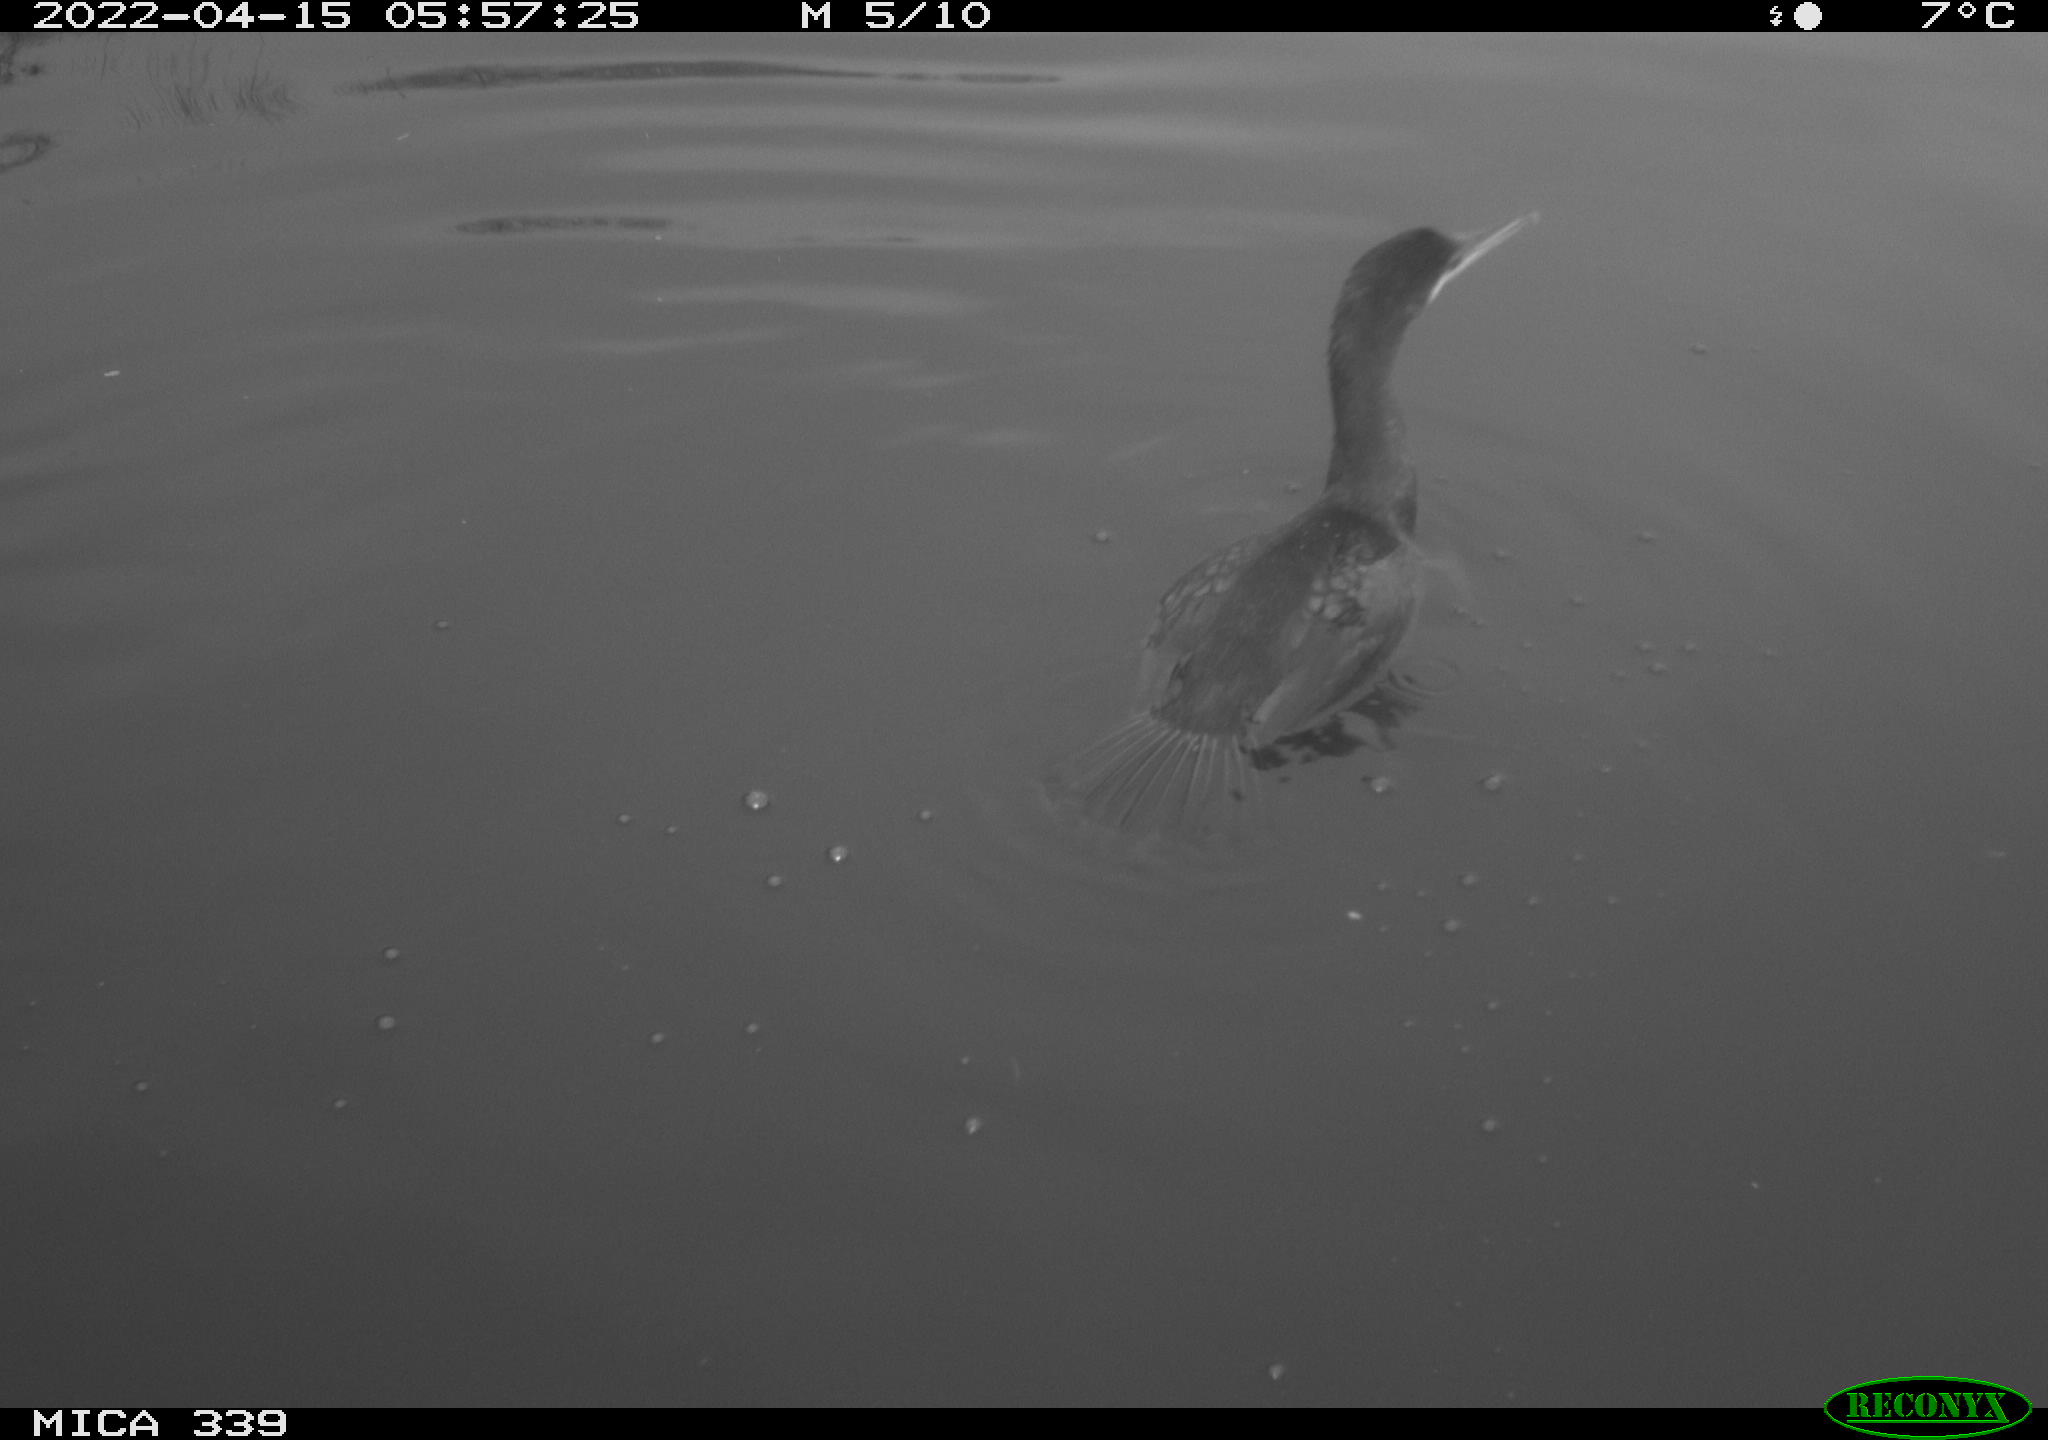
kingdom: Animalia
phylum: Chordata
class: Aves
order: Suliformes
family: Phalacrocoracidae
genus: Phalacrocorax
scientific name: Phalacrocorax carbo
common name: Great cormorant
